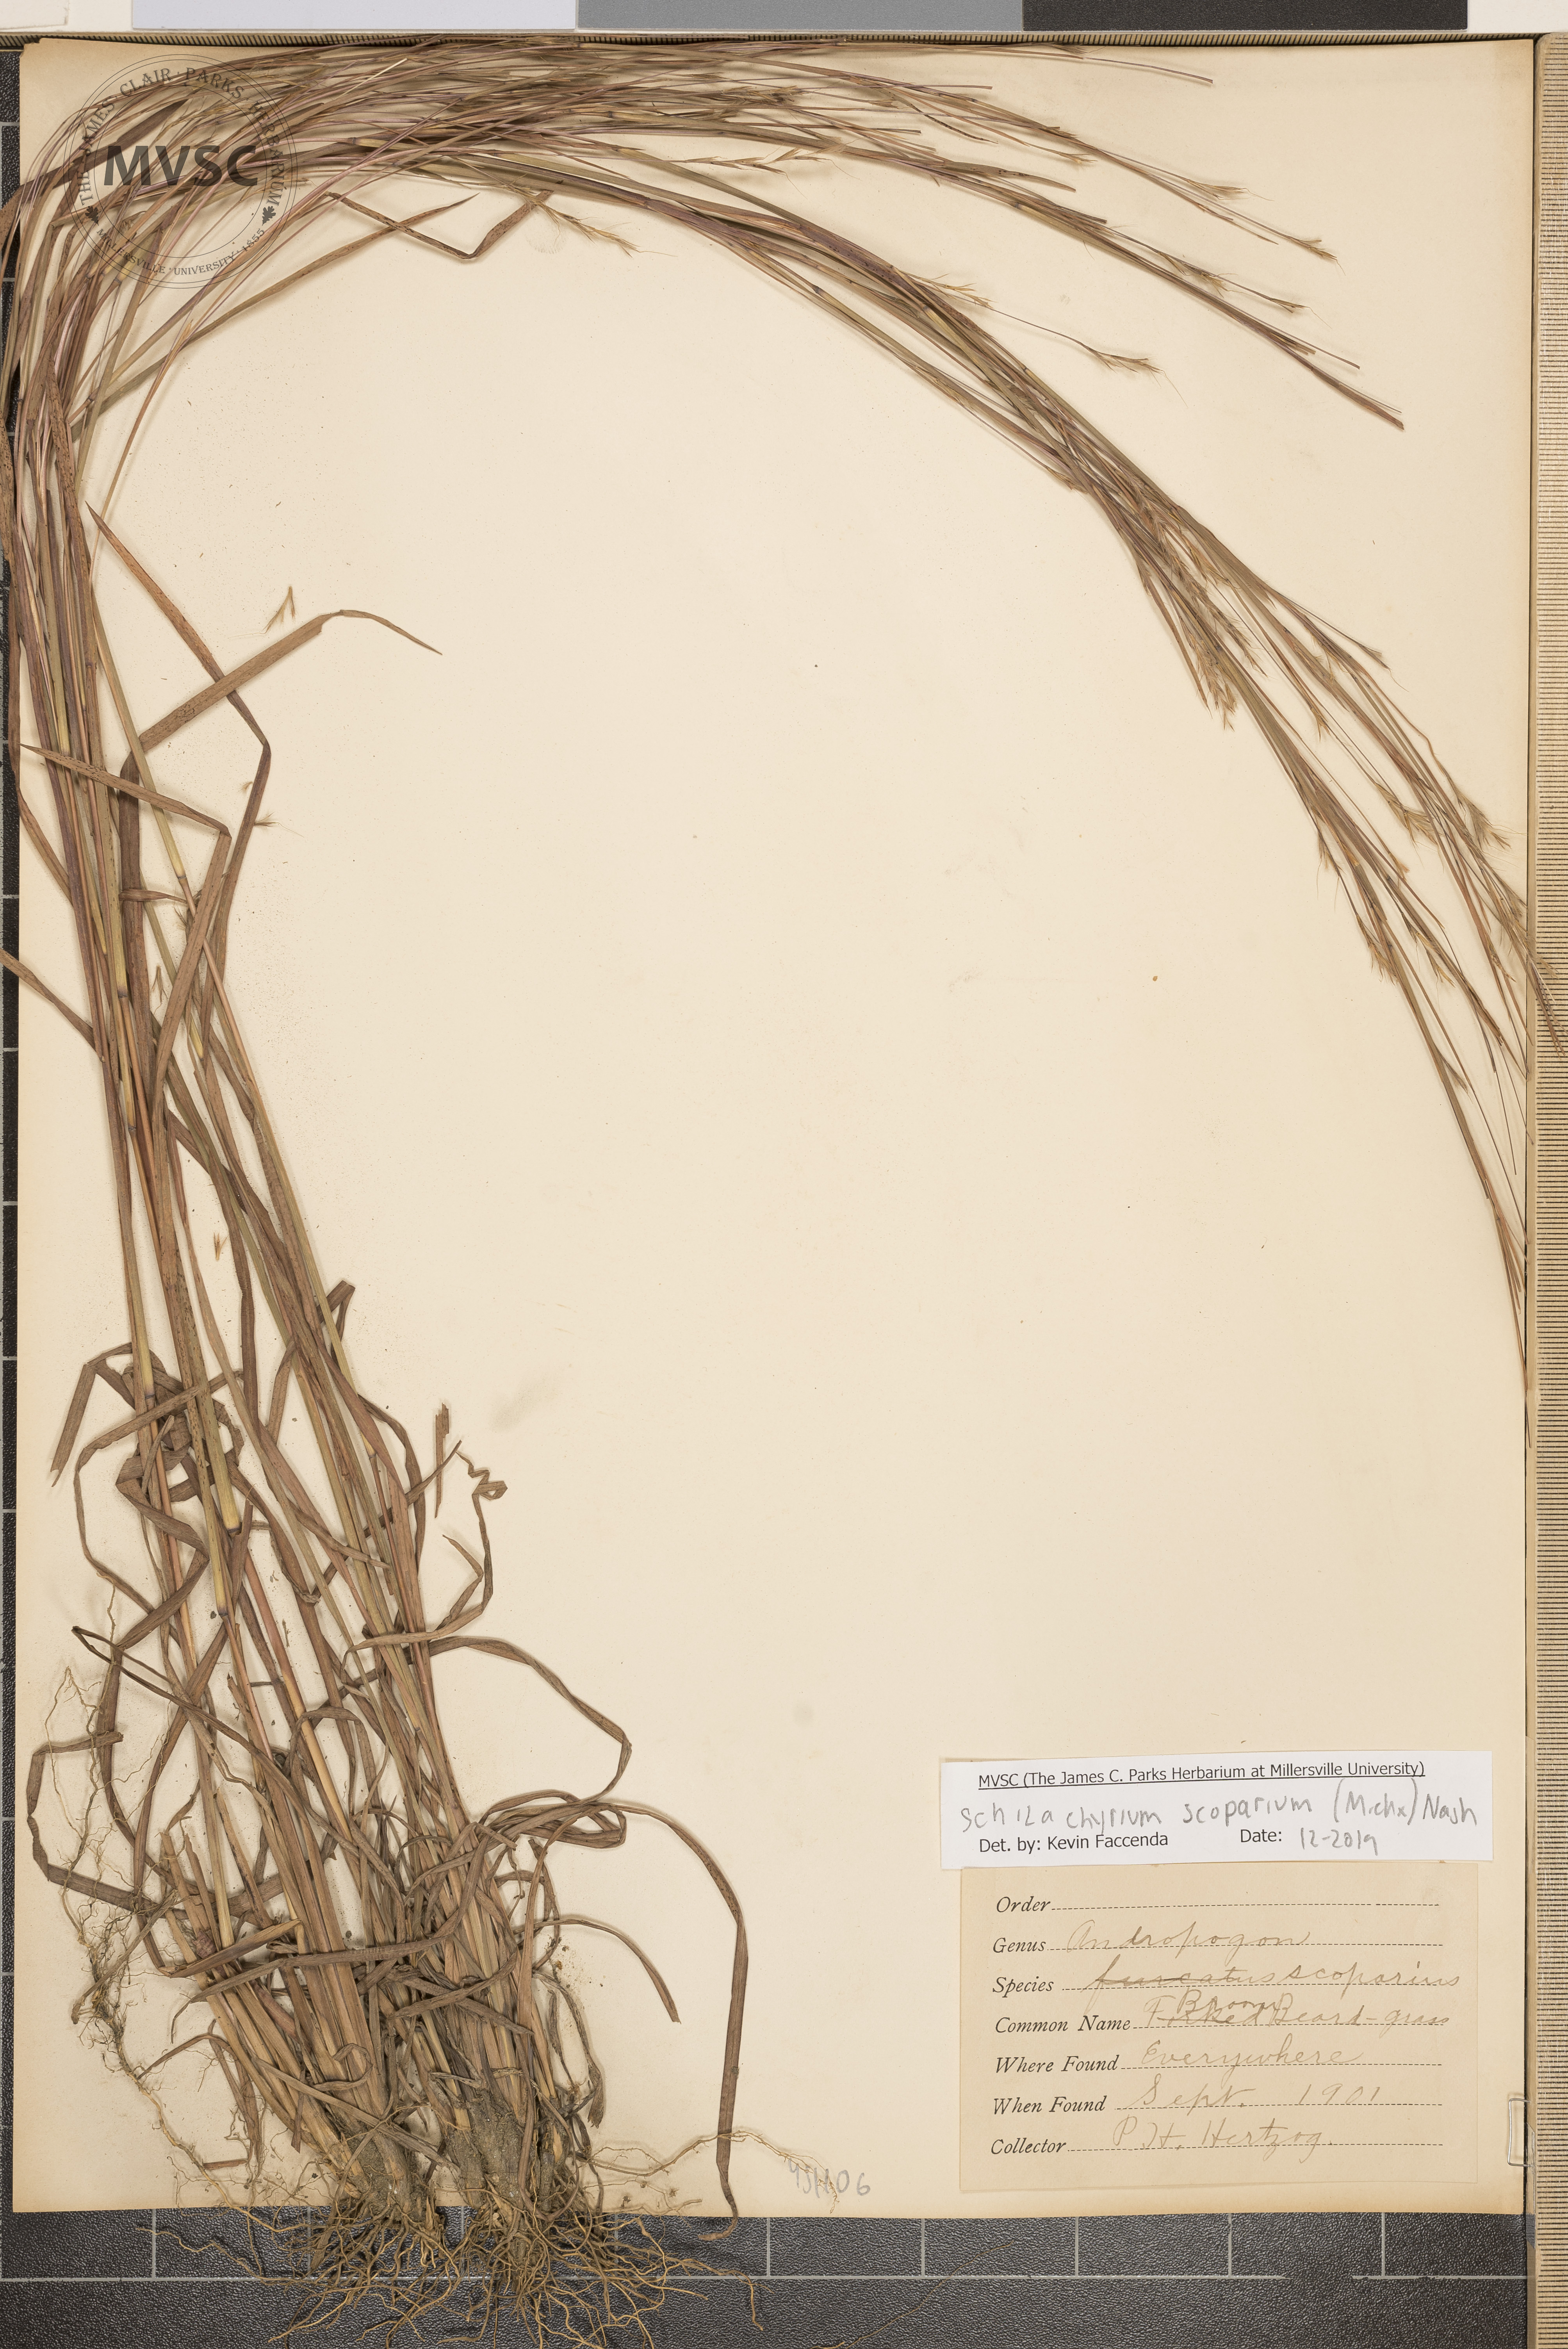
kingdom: Plantae
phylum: Tracheophyta
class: Liliopsida
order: Poales
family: Poaceae
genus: Schizachyrium
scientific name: Schizachyrium scoparium
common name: Little bluestem
